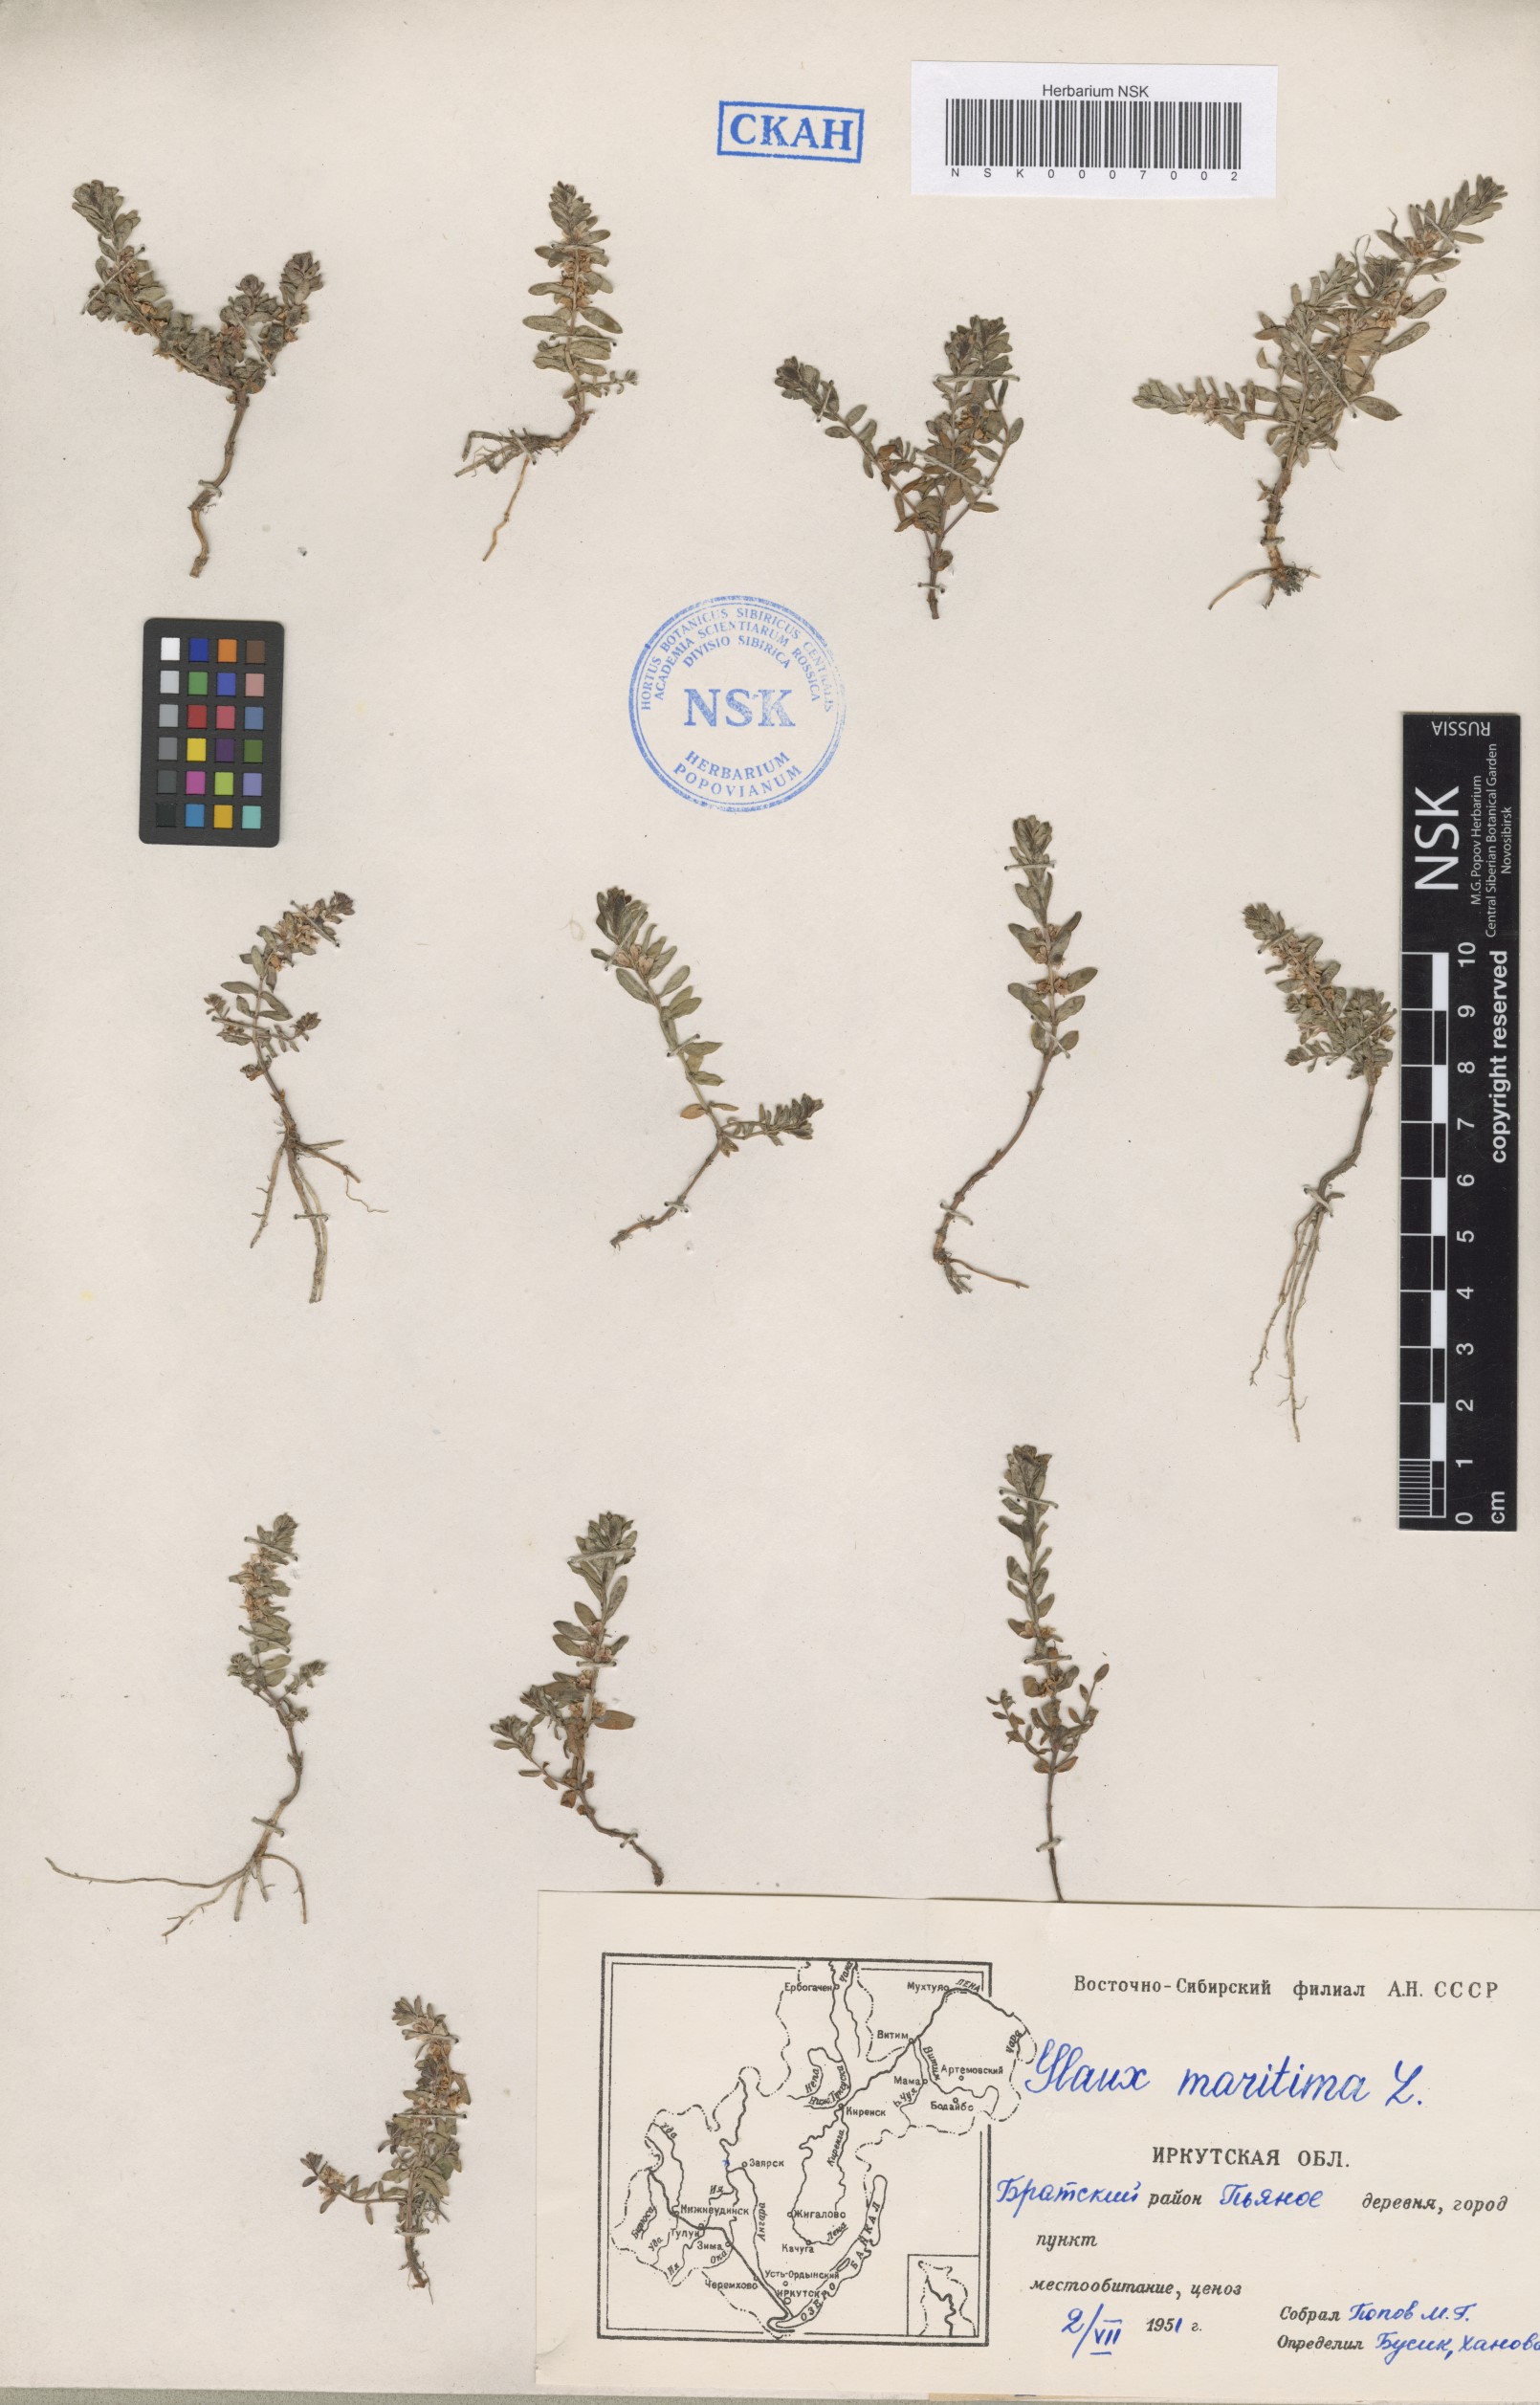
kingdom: Plantae
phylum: Tracheophyta
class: Magnoliopsida
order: Ericales
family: Primulaceae
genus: Lysimachia
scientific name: Lysimachia maritima
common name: Sea milkwort
